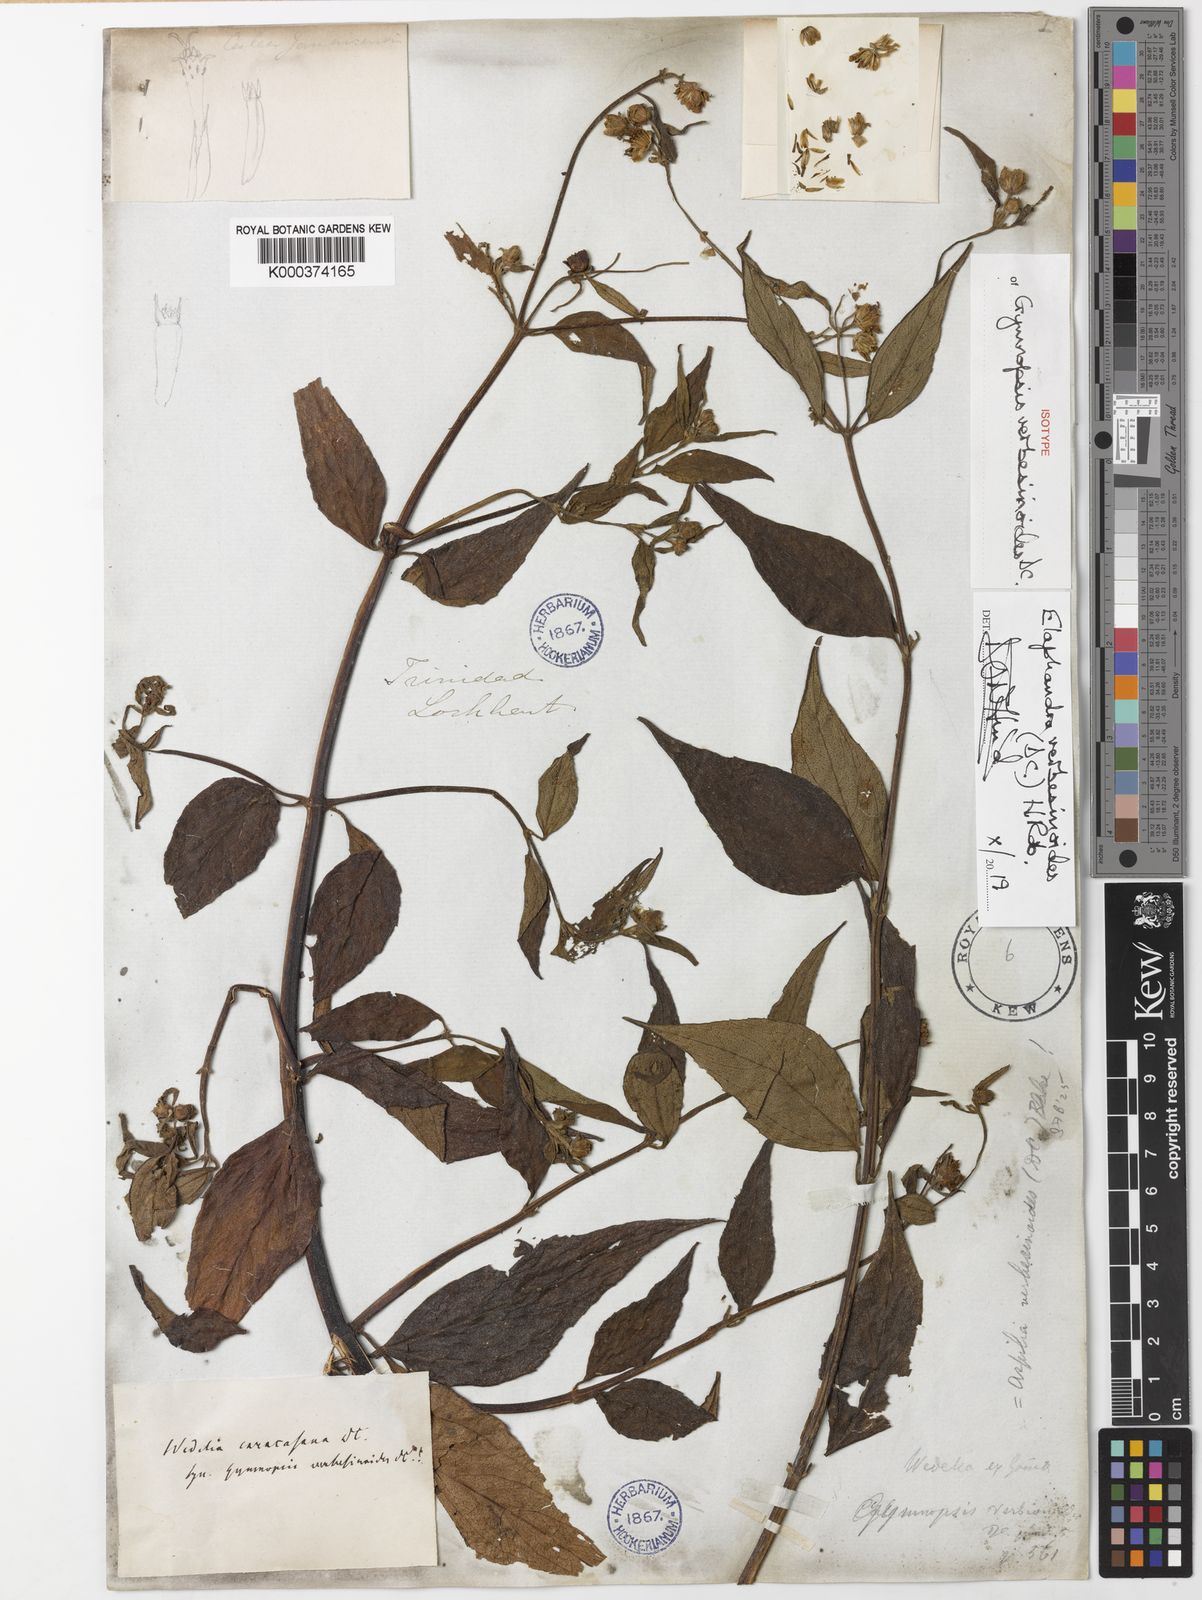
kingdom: Plantae
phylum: Tracheophyta
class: Magnoliopsida
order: Asterales
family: Asteraceae
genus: Elaphandra
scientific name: Elaphandra verbesinoides
